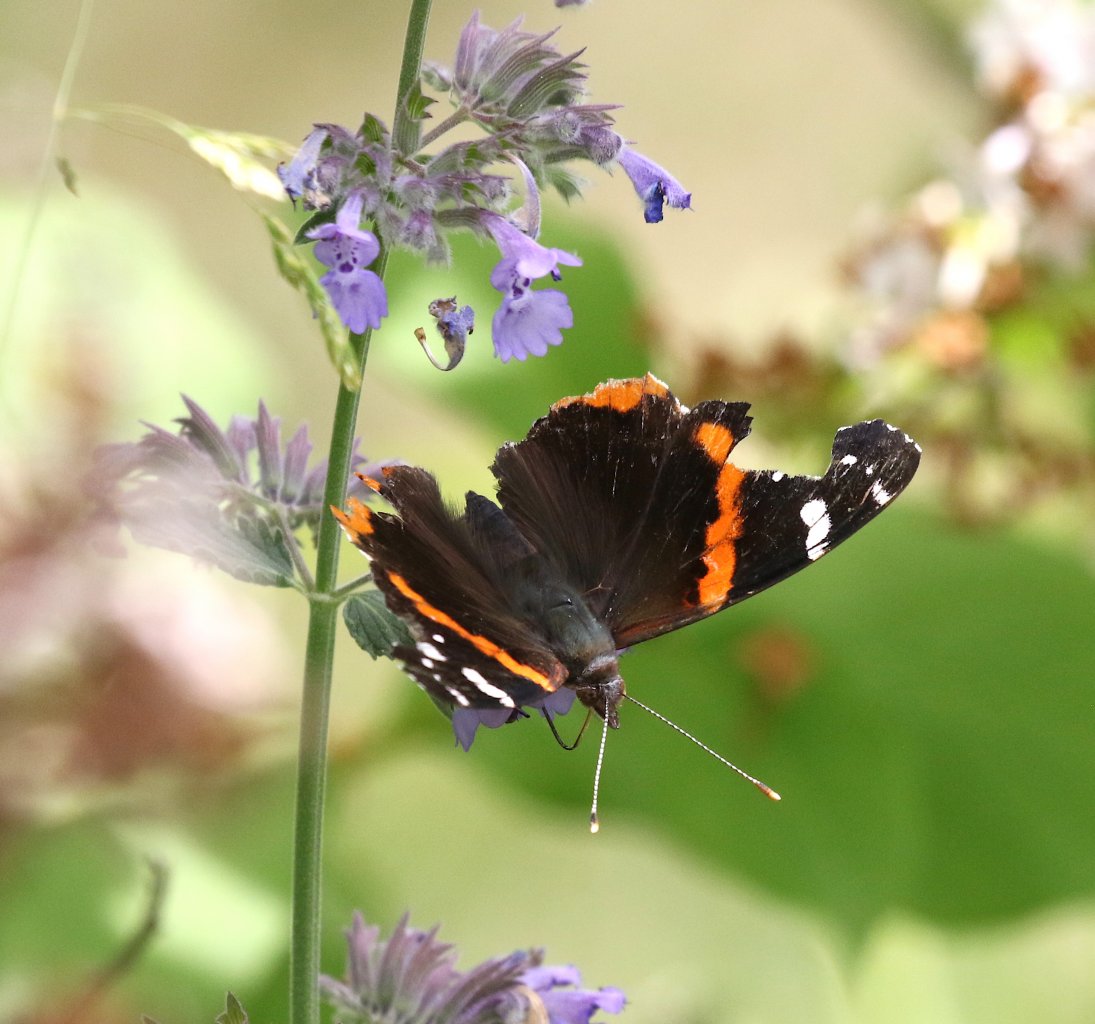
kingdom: Animalia
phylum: Arthropoda
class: Insecta
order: Lepidoptera
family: Nymphalidae
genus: Vanessa
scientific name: Vanessa atalanta
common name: Red Admiral
